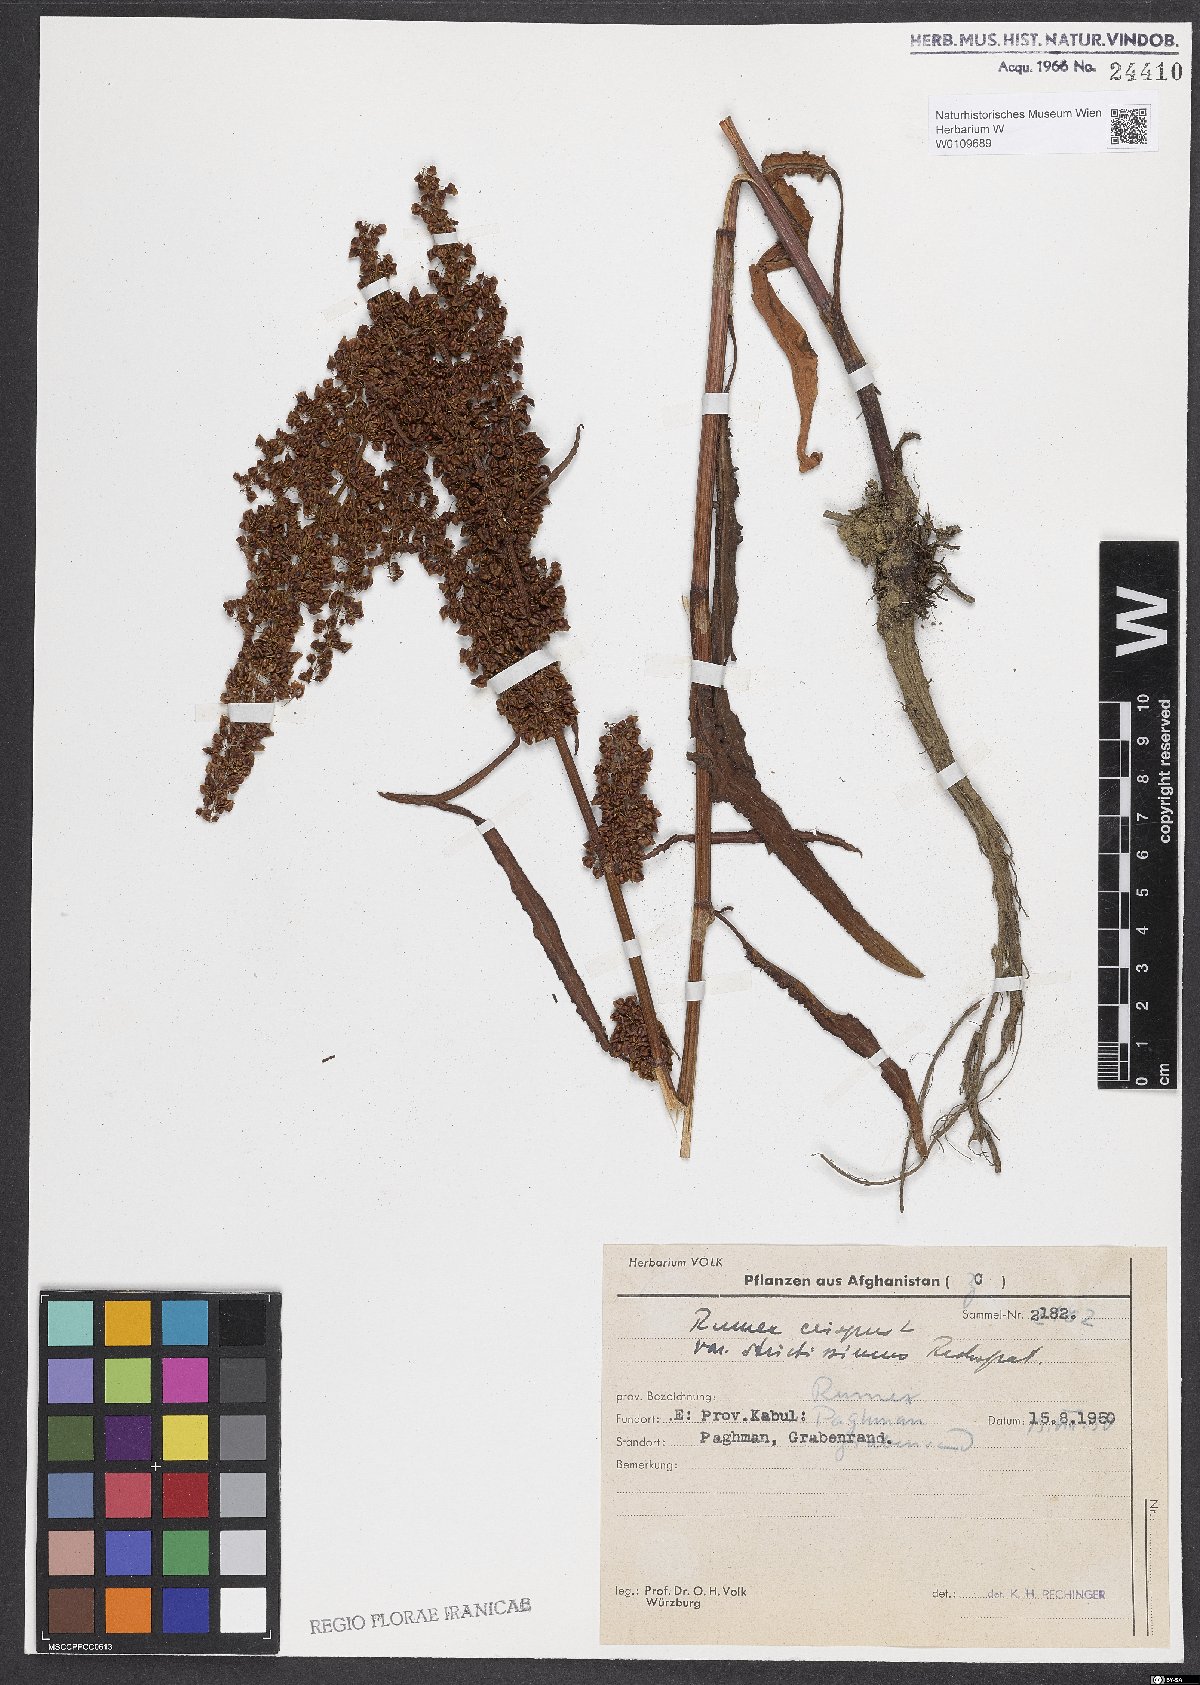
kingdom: Plantae
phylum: Tracheophyta
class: Magnoliopsida
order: Caryophyllales
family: Polygonaceae
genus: Rumex
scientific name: Rumex crispus
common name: Curled dock
